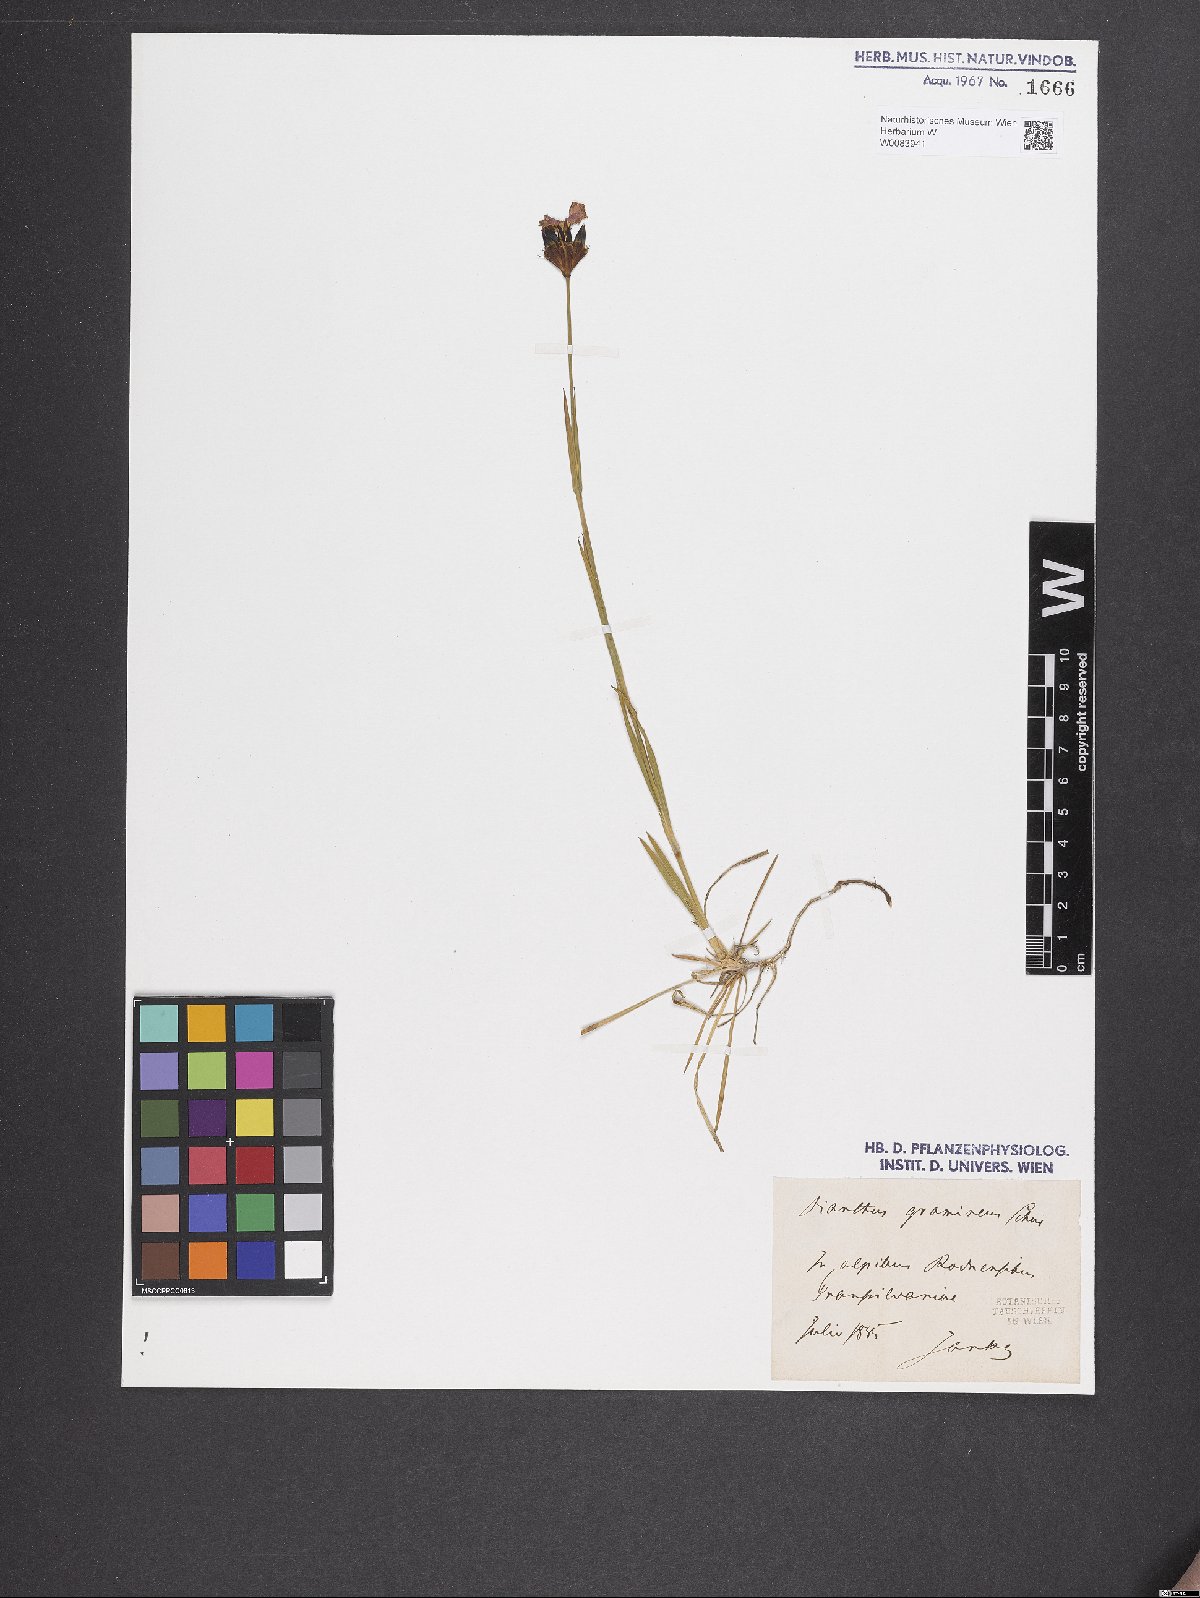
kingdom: Plantae
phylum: Tracheophyta
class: Magnoliopsida
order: Caryophyllales
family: Caryophyllaceae
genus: Dianthus
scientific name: Dianthus carthusianorum
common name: Carthusian pink
